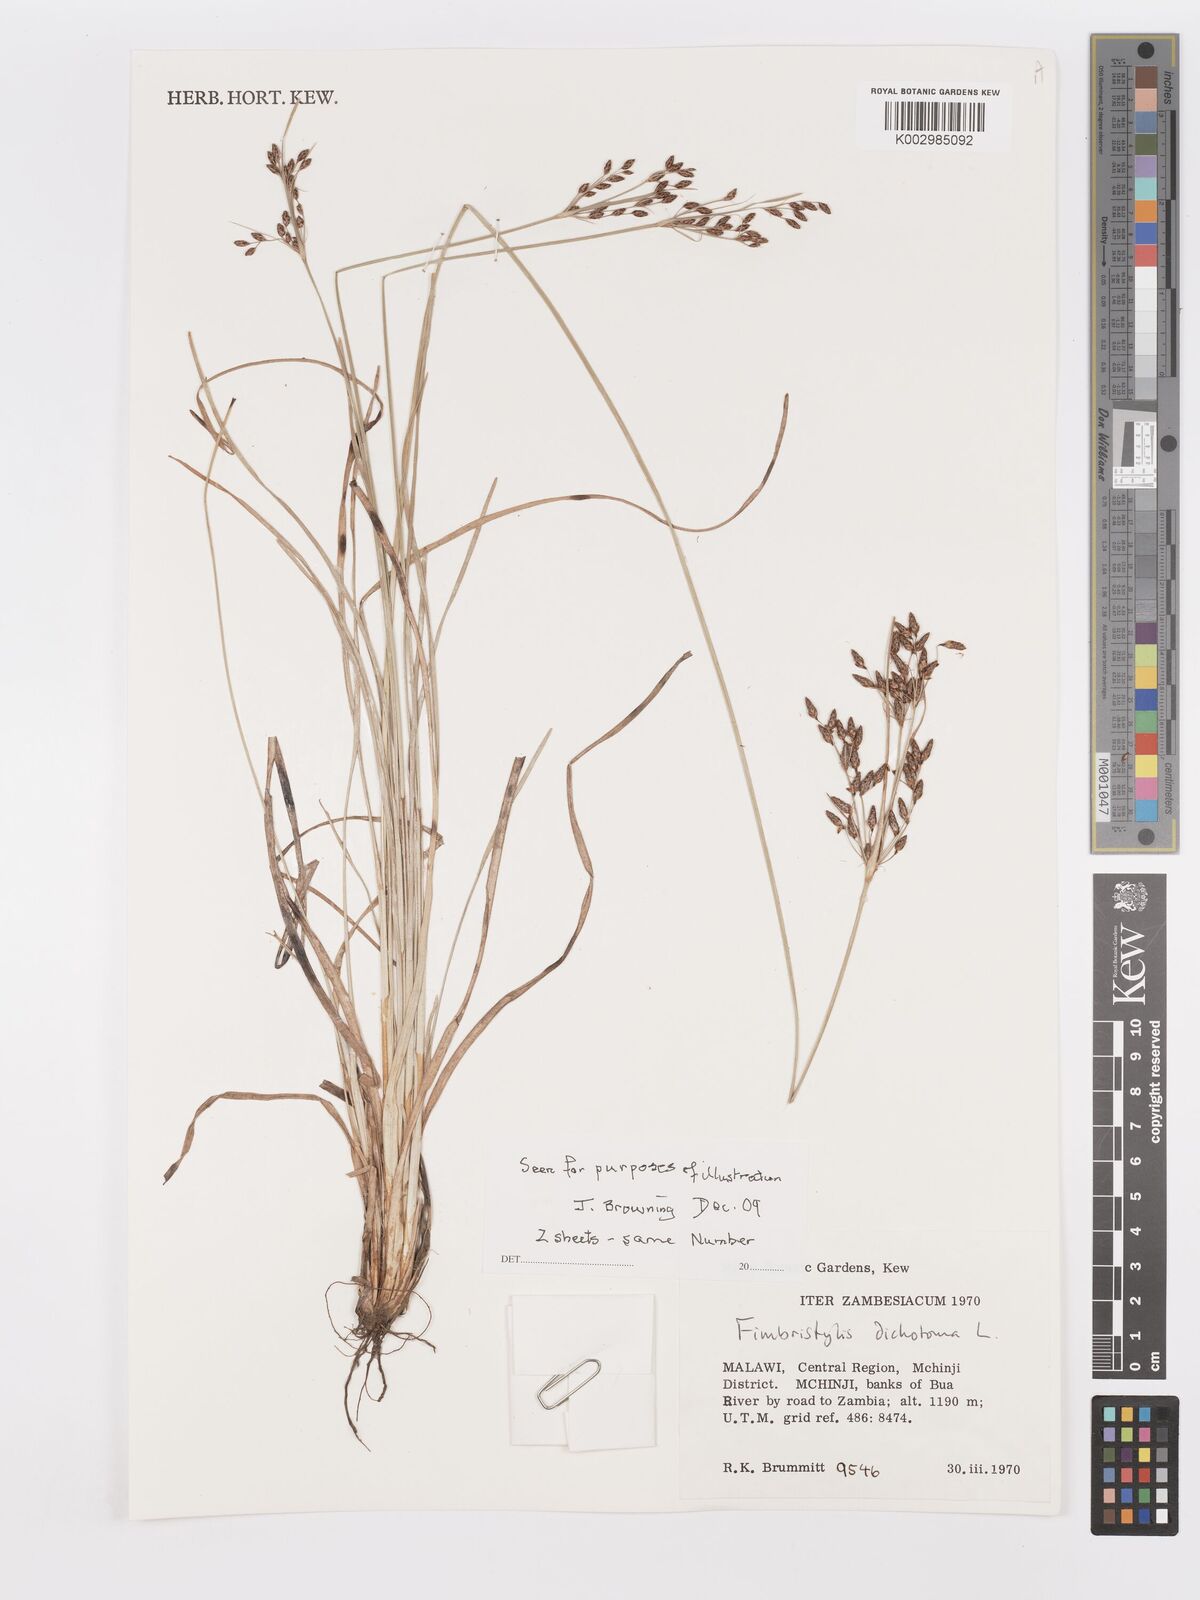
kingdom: Plantae
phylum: Tracheophyta
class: Liliopsida
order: Poales
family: Cyperaceae
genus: Fimbristylis
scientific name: Fimbristylis dichotoma
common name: Forked fimbry
